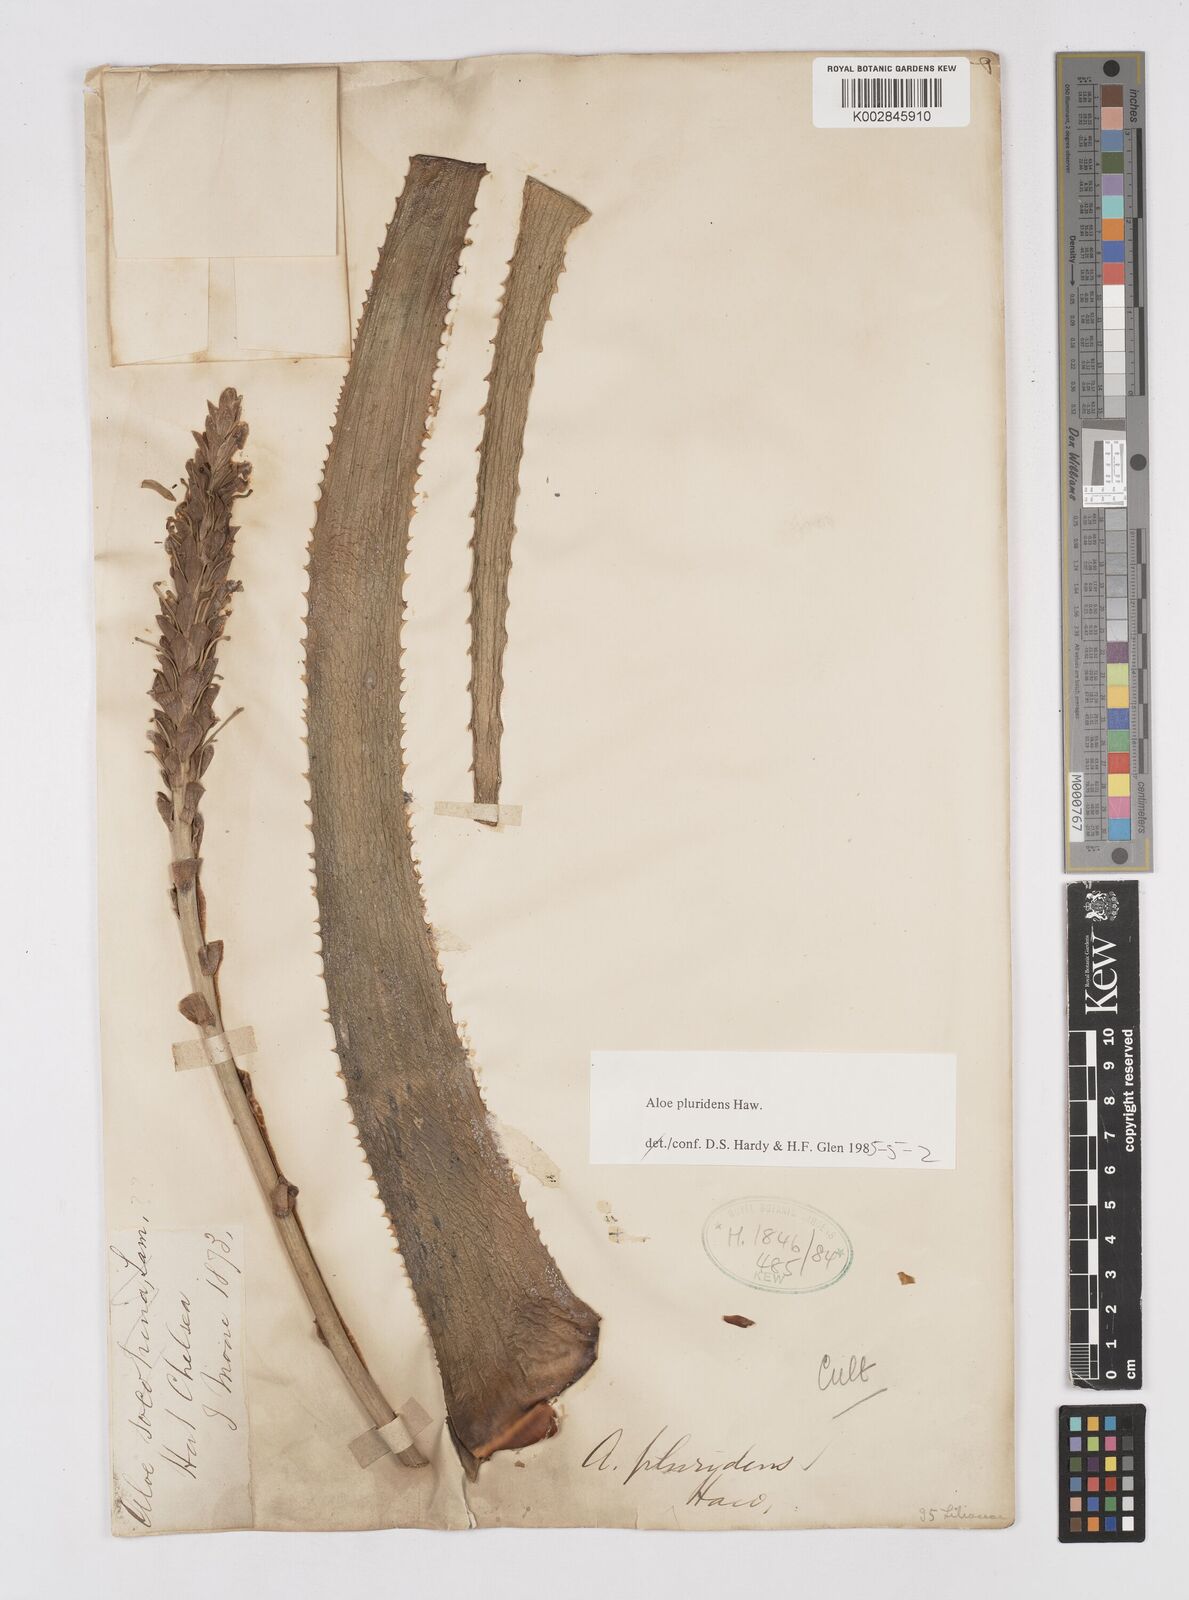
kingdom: Plantae
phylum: Tracheophyta
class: Liliopsida
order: Asparagales
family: Asphodelaceae
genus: Aloe
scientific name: Aloe pluridens
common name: French aloe
